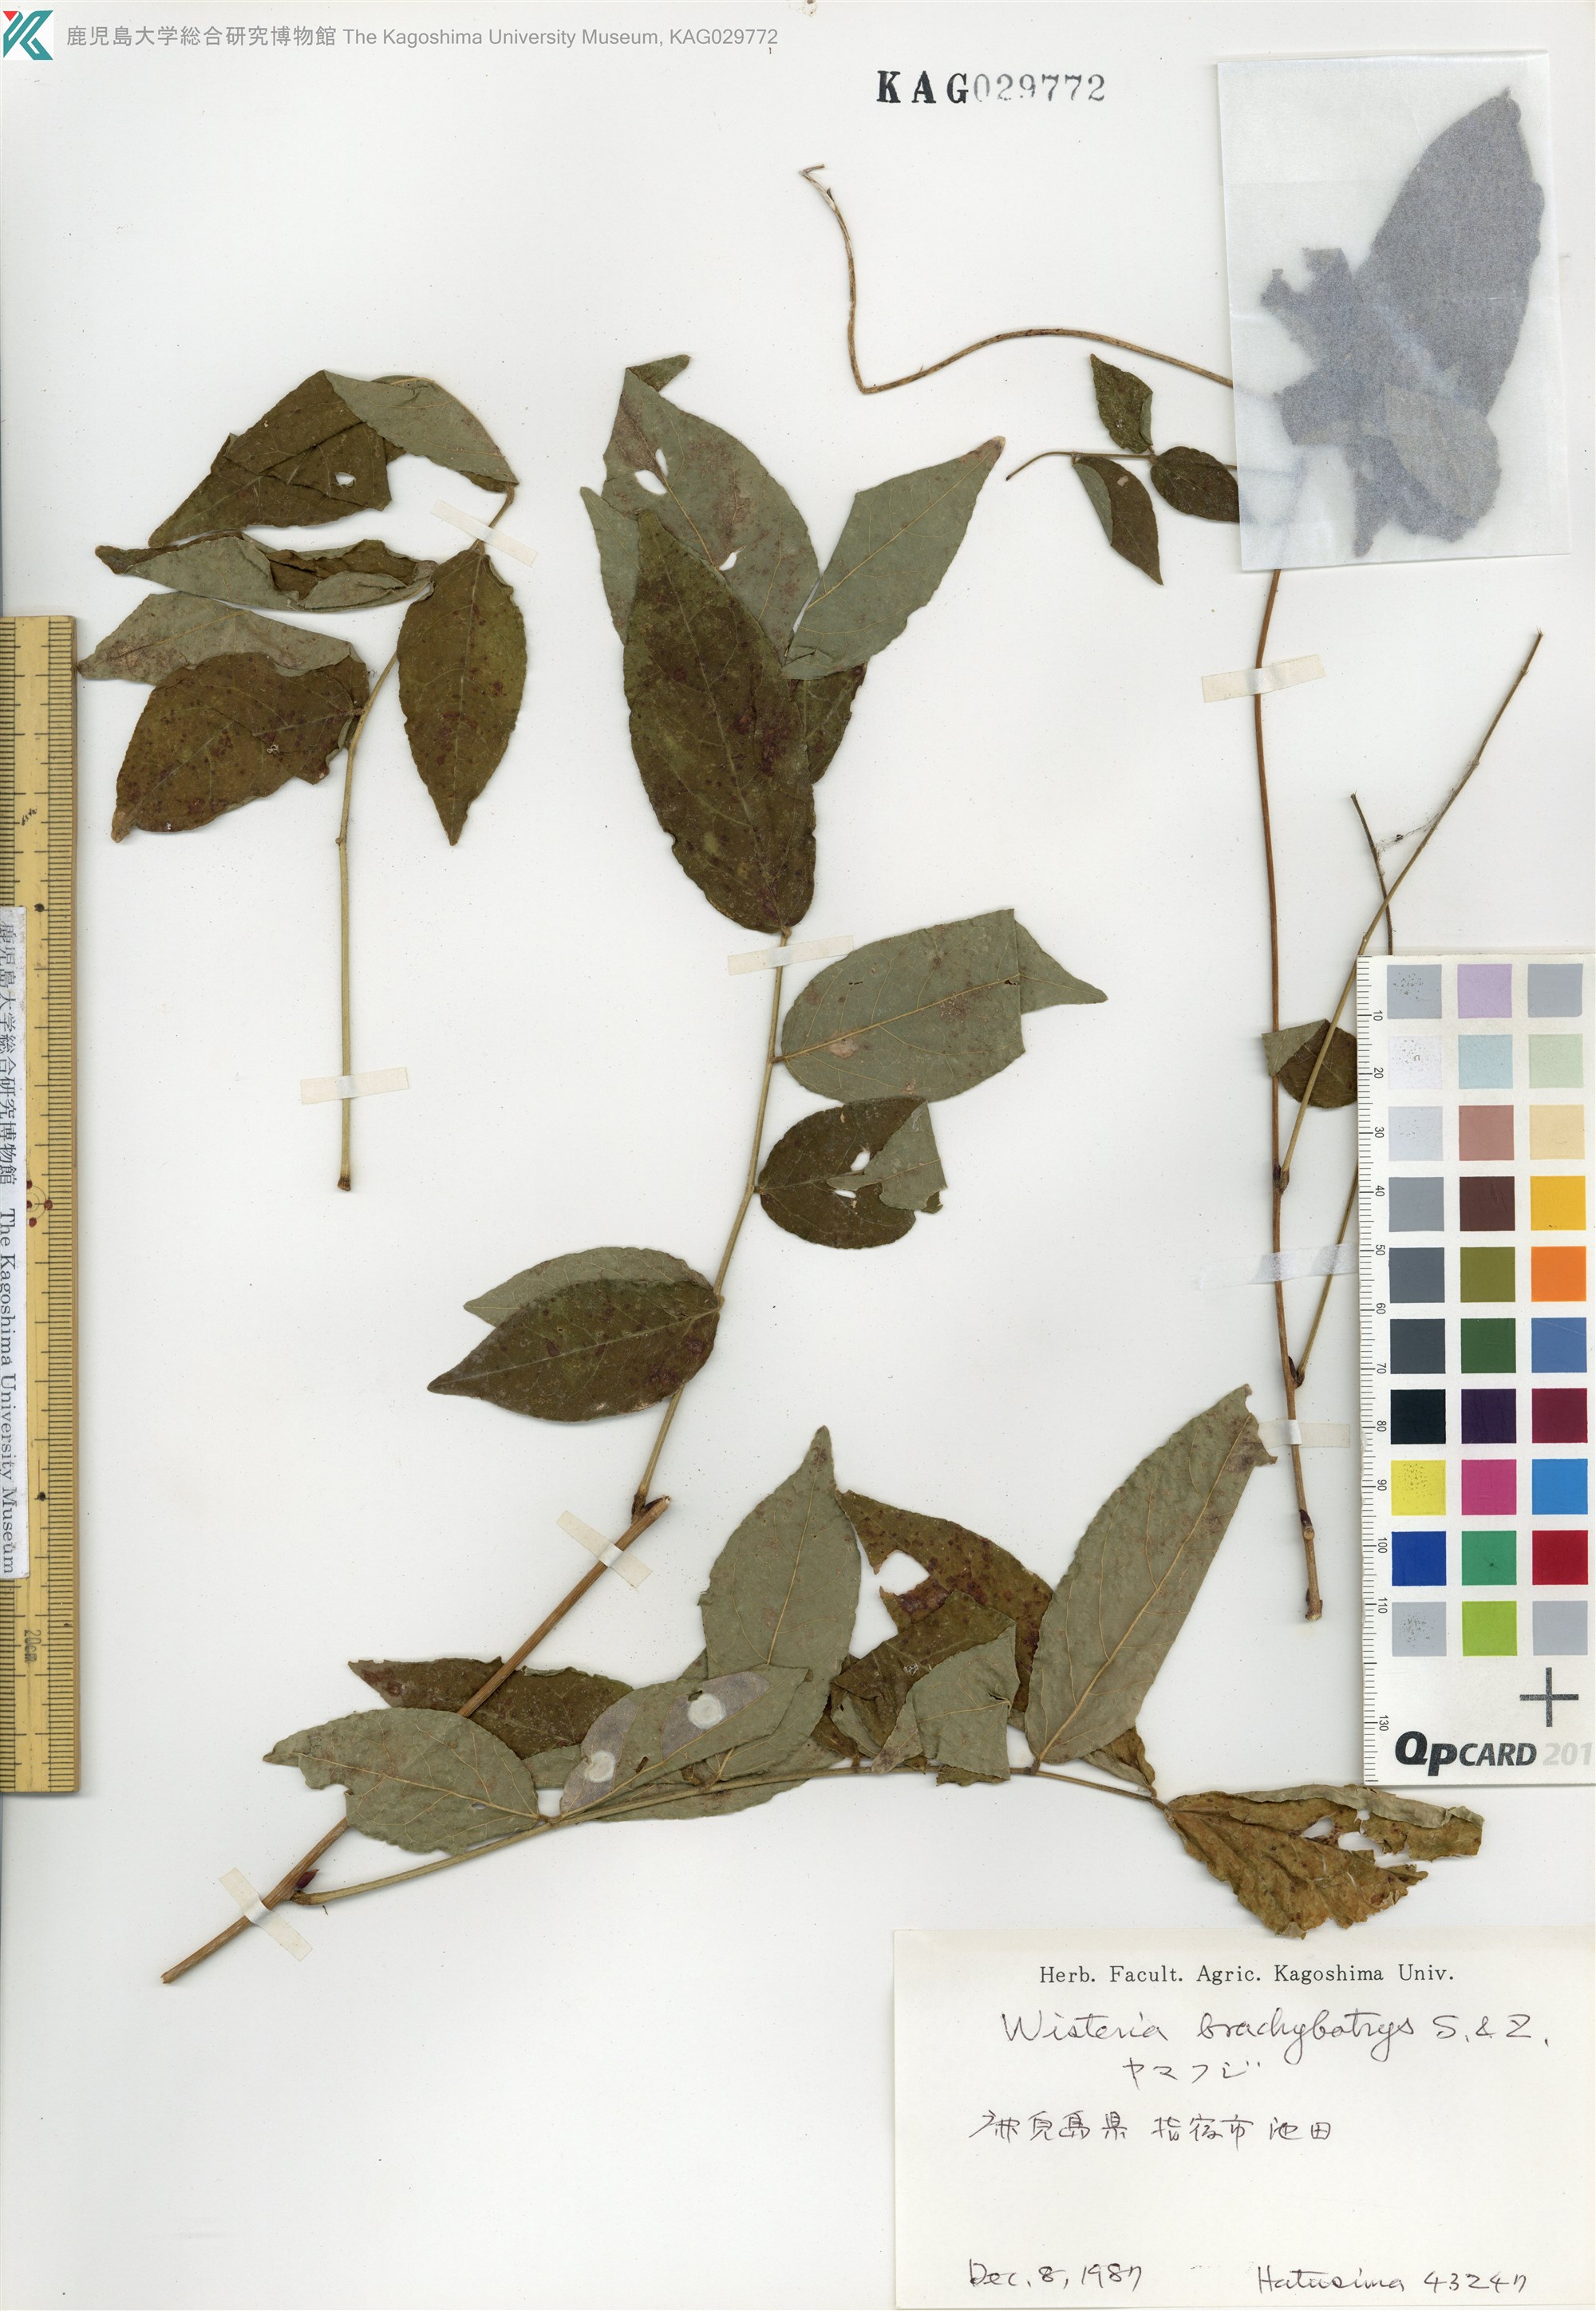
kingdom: Plantae
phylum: Tracheophyta
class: Magnoliopsida
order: Fabales
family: Fabaceae
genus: Wisteria
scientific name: Wisteria brachybotrys
